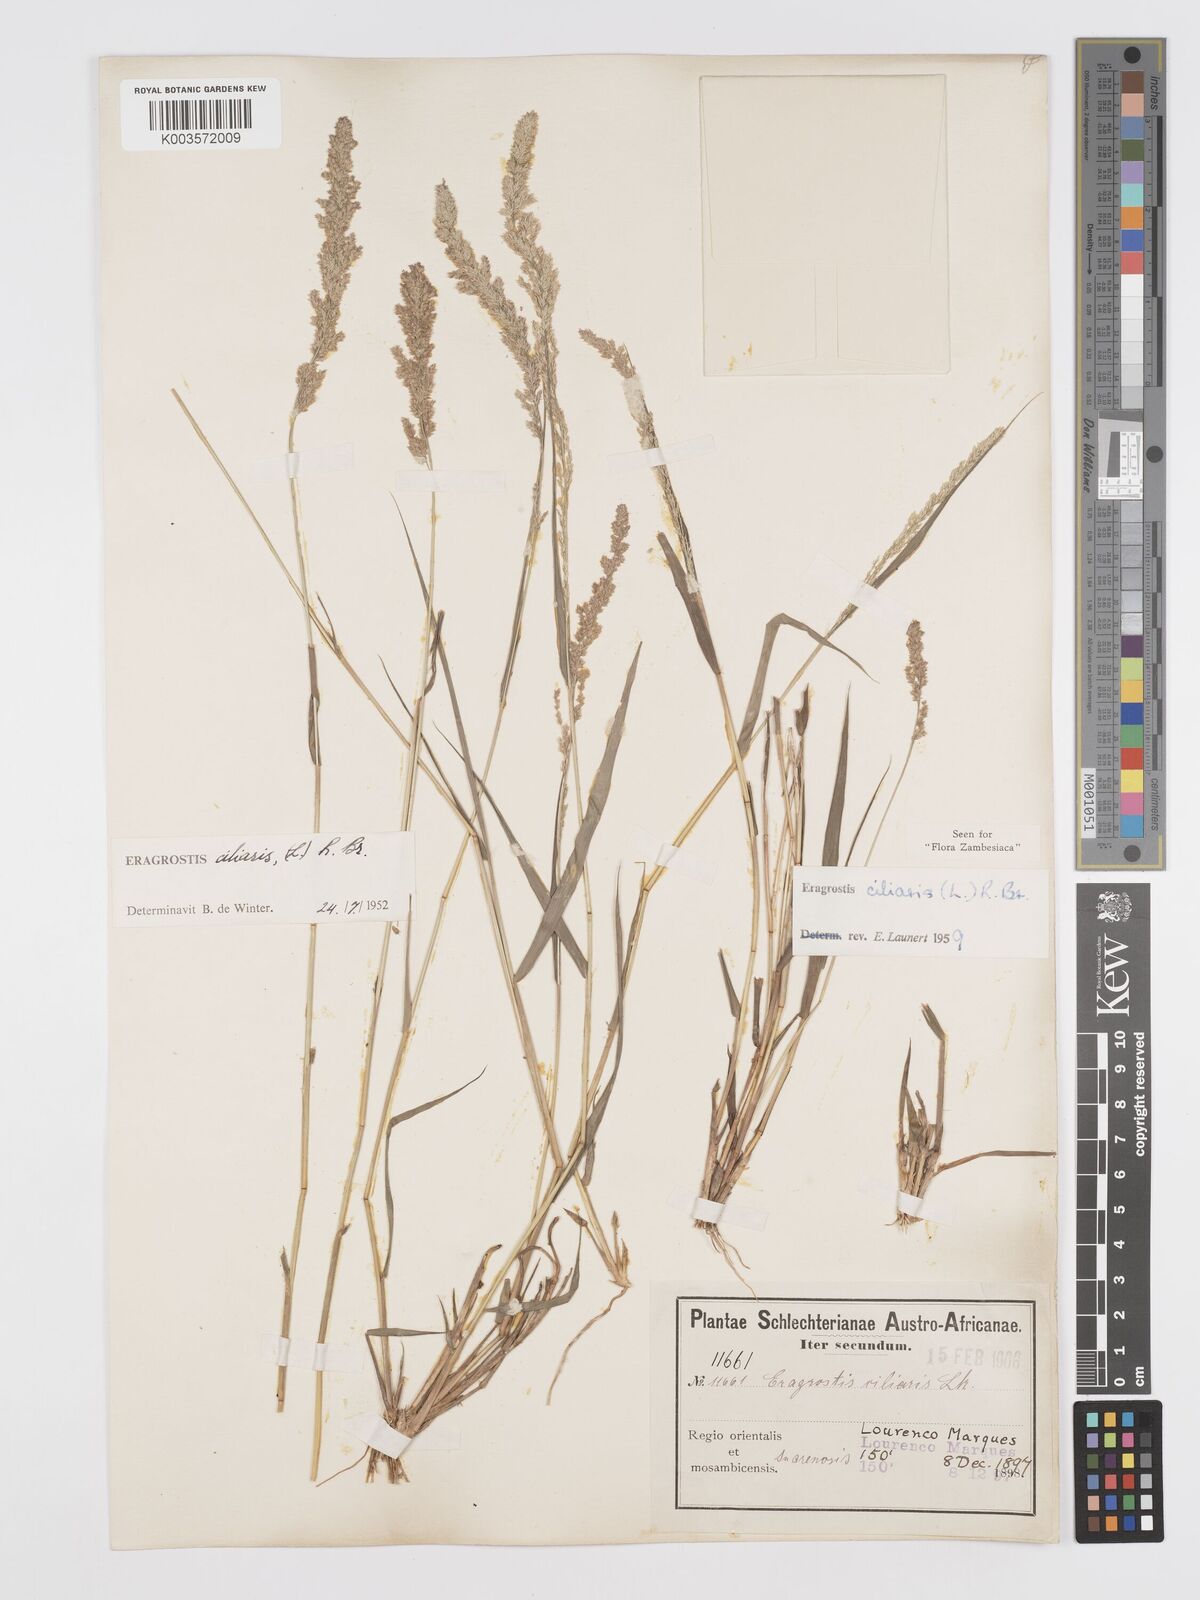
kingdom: Plantae
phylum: Tracheophyta
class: Liliopsida
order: Poales
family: Poaceae
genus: Eragrostis
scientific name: Eragrostis ciliaris
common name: Gophertail lovegrass
